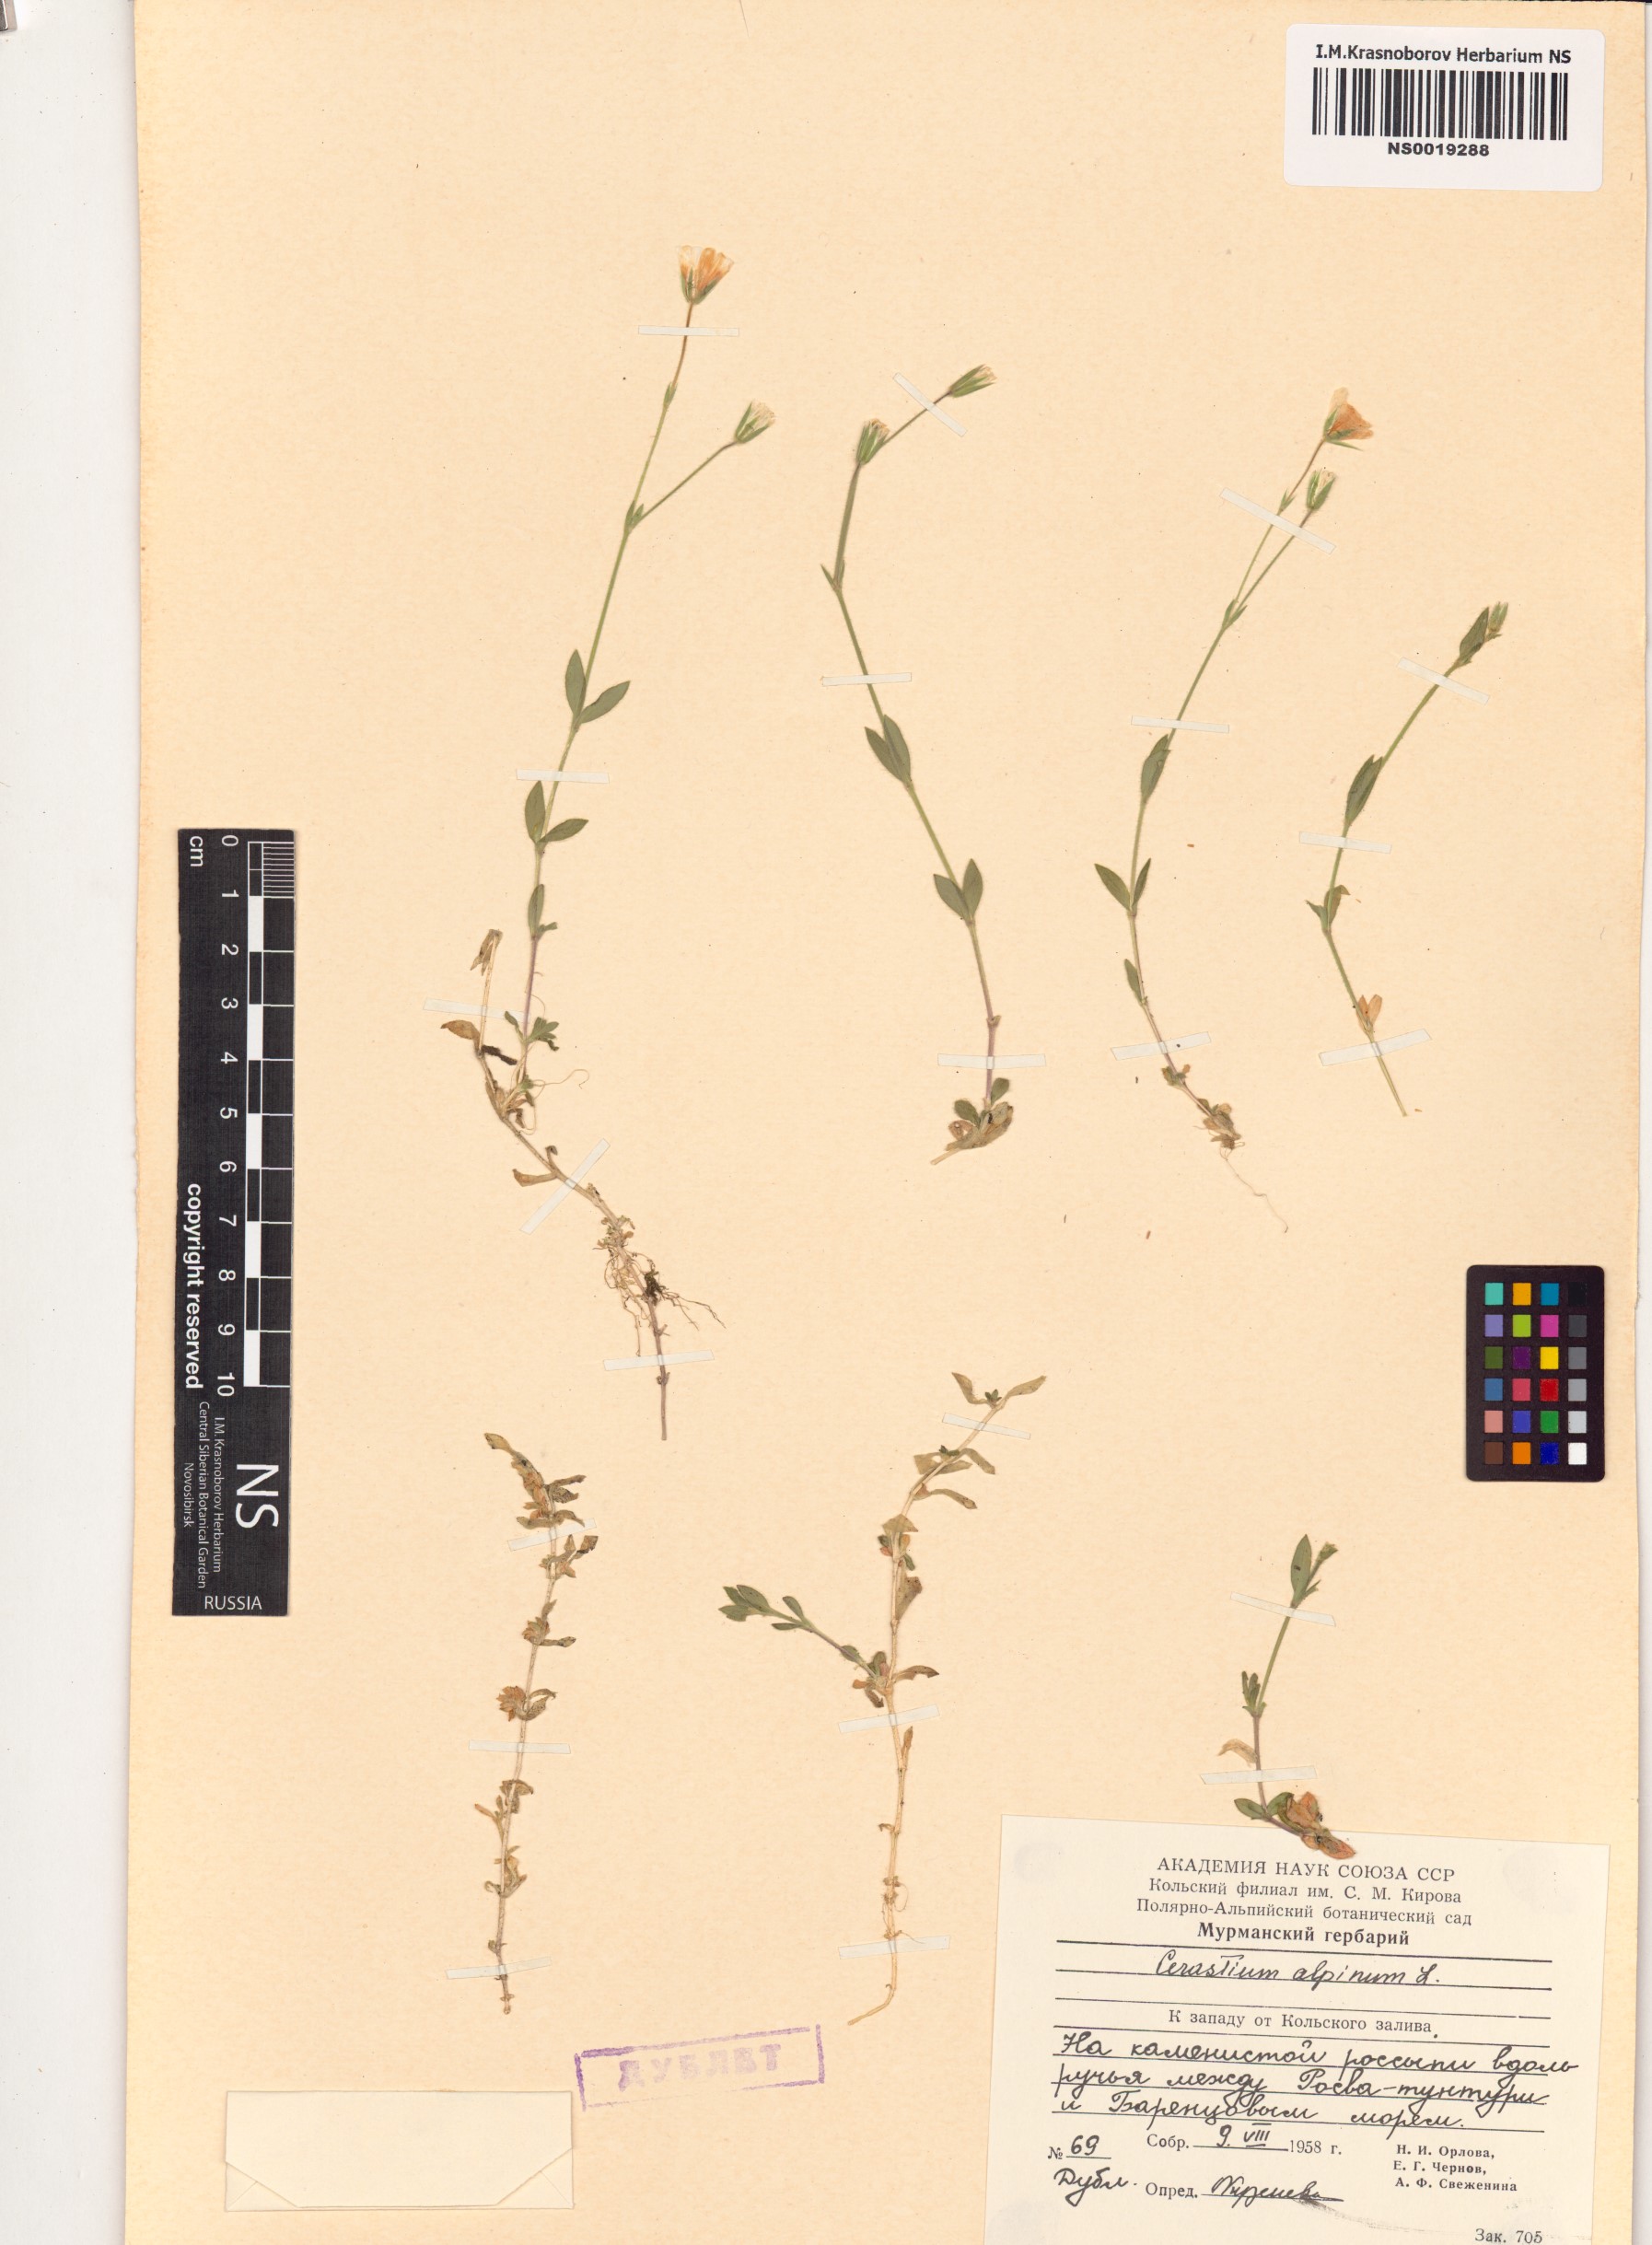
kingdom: Plantae
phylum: Tracheophyta
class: Magnoliopsida
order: Caryophyllales
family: Caryophyllaceae
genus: Cerastium
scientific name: Cerastium alpinum
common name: Alpine mouse-ear
